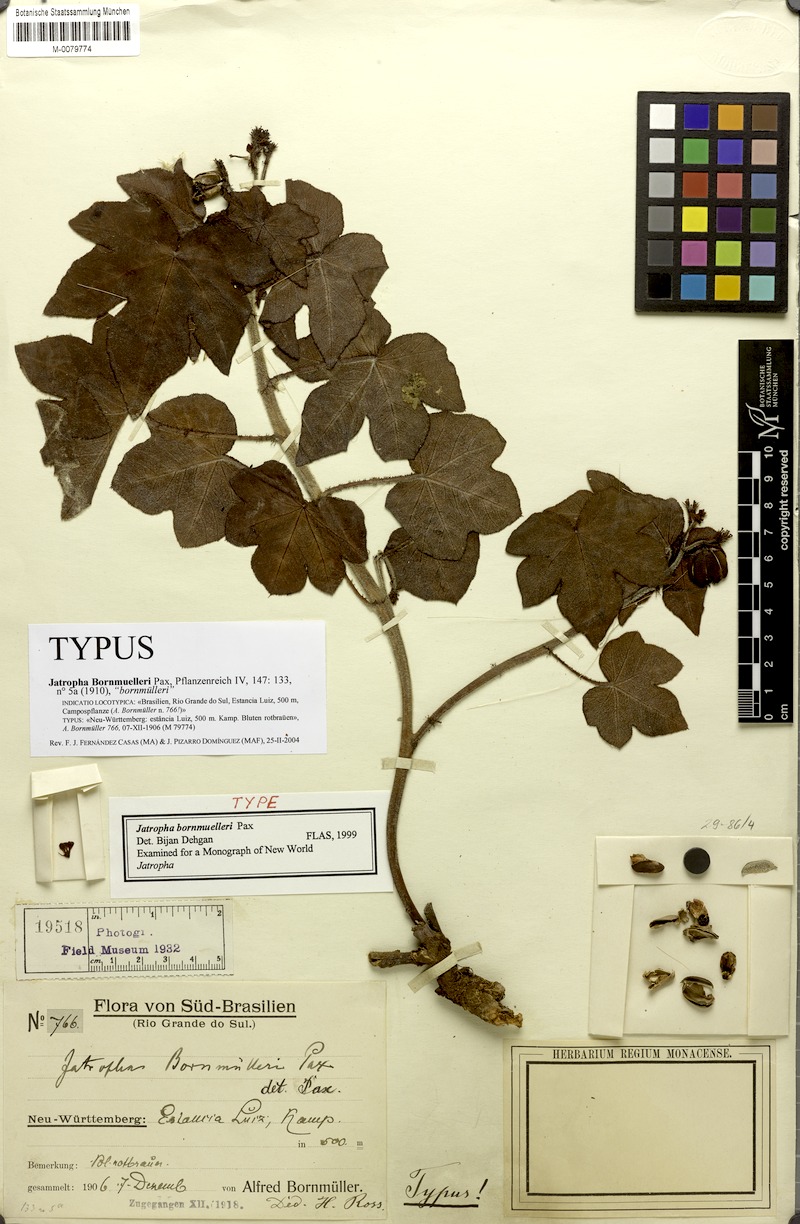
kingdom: Plantae
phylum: Tracheophyta
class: Magnoliopsida
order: Malpighiales
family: Euphorbiaceae
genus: Jatropha
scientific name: Jatropha ribifolia
